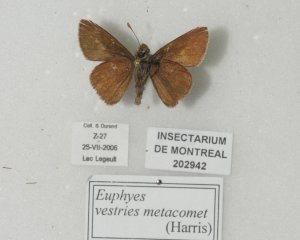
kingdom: Animalia
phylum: Arthropoda
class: Insecta
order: Lepidoptera
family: Hesperiidae
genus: Euphyes
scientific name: Euphyes vestris
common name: Dun Skipper
